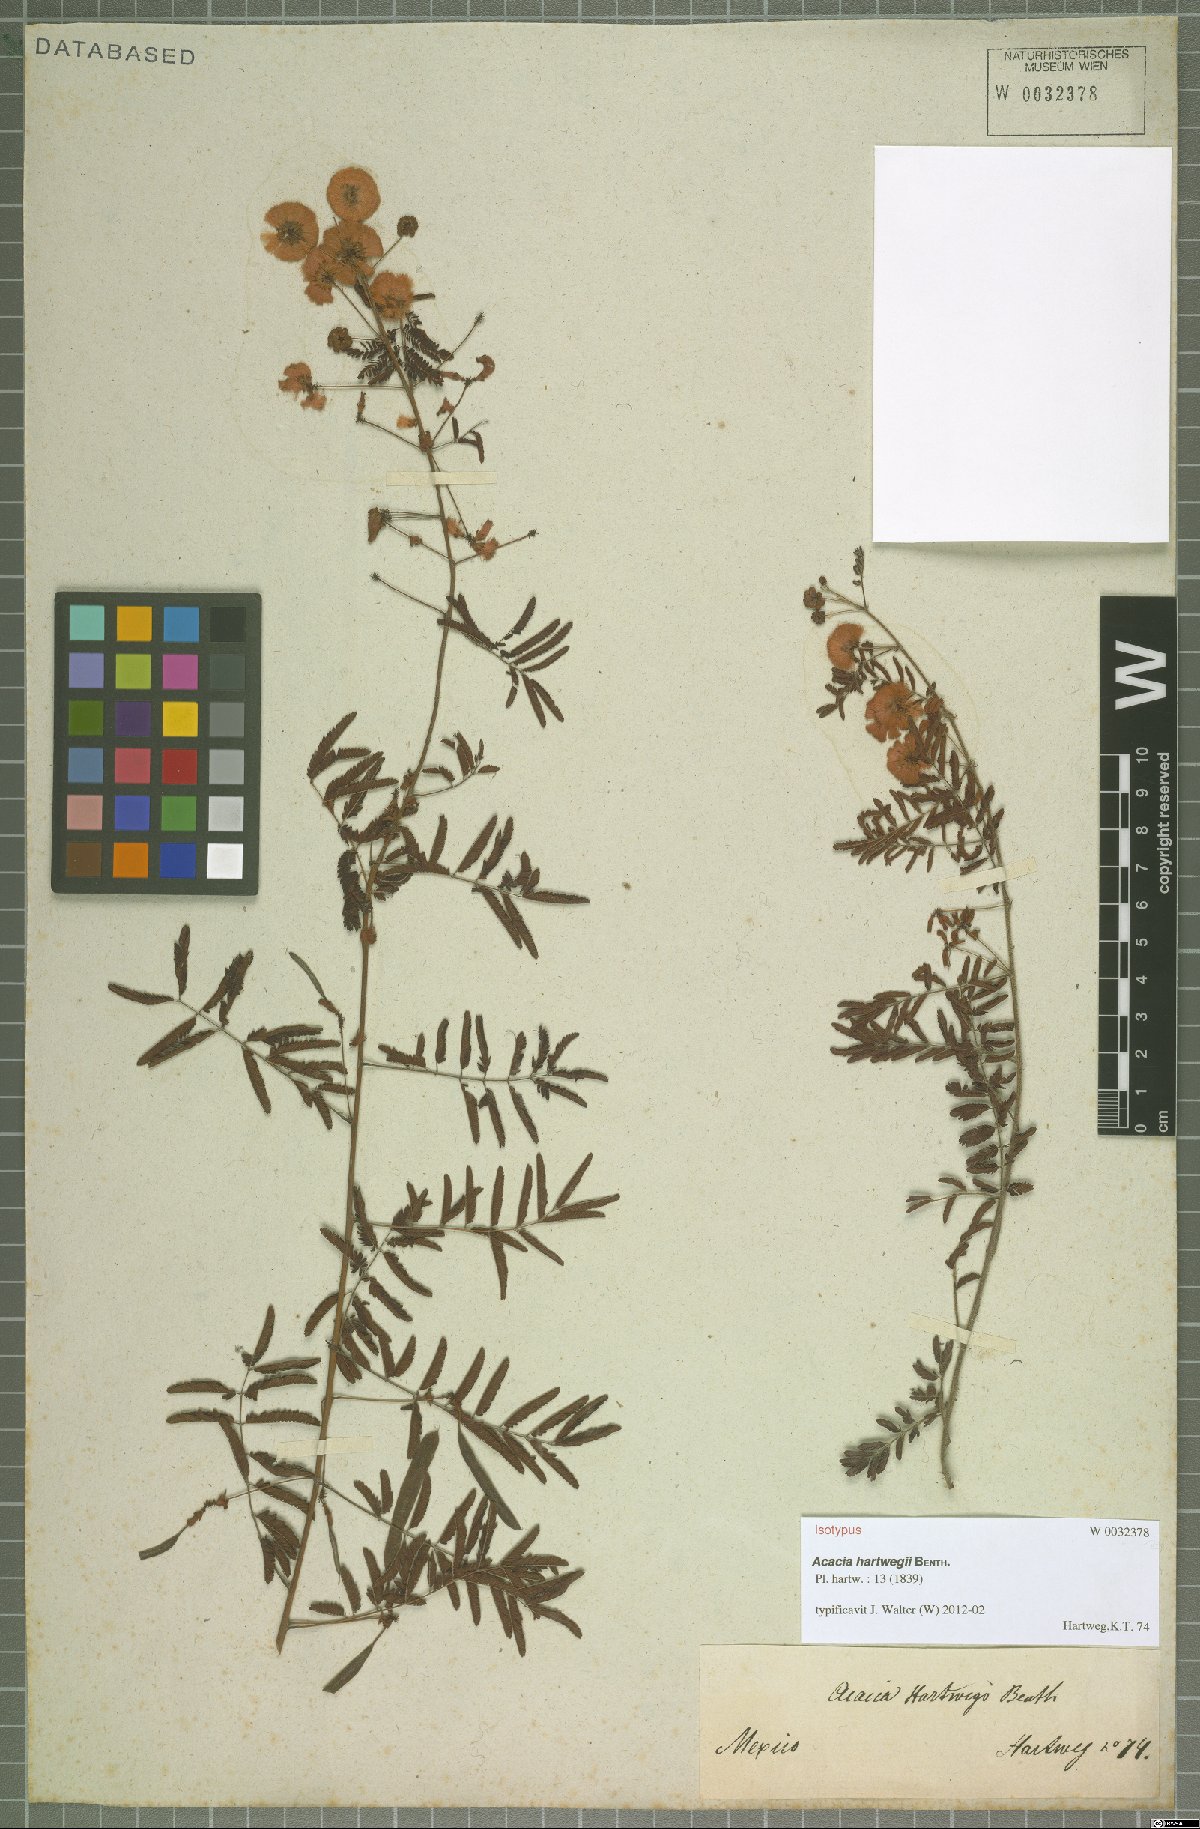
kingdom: Plantae
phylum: Tracheophyta
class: Magnoliopsida
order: Fabales
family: Fabaceae
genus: Acaciella
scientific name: Acaciella hartwegii
